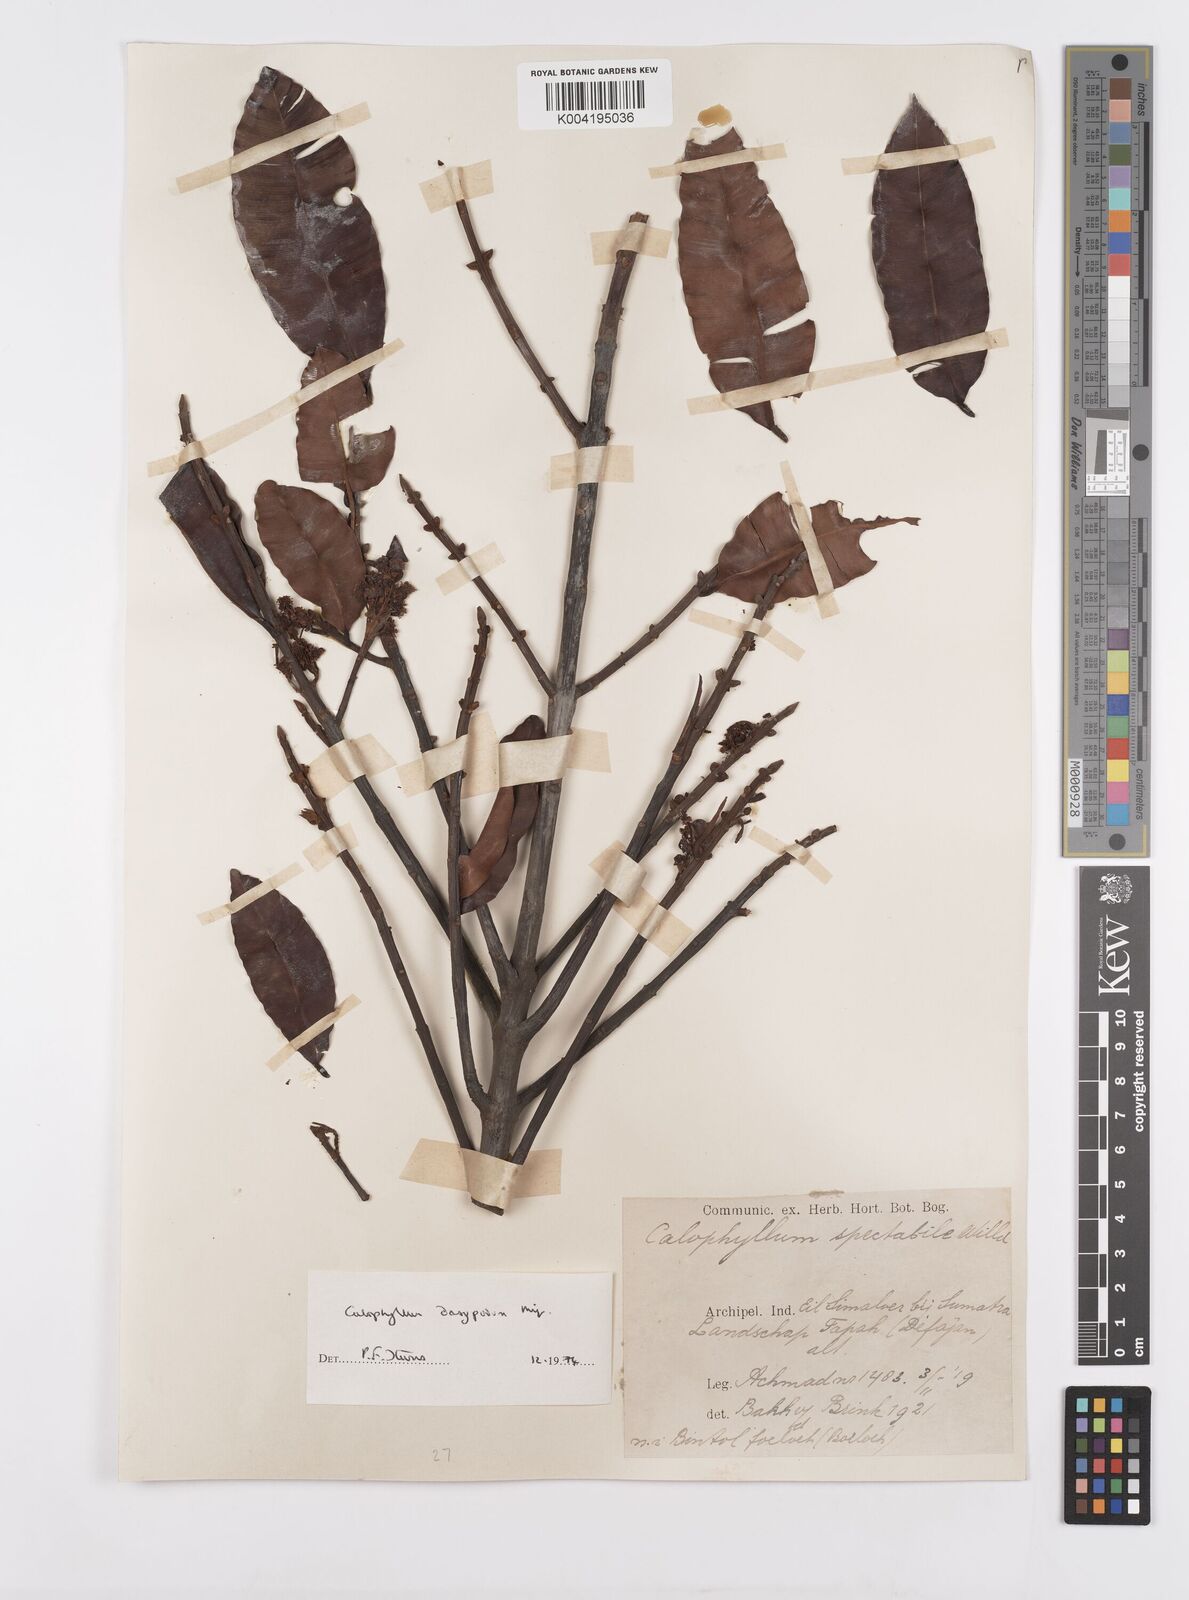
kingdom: Plantae
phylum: Tracheophyta
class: Magnoliopsida
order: Malpighiales
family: Calophyllaceae
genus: Calophyllum
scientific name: Calophyllum dasypodium
